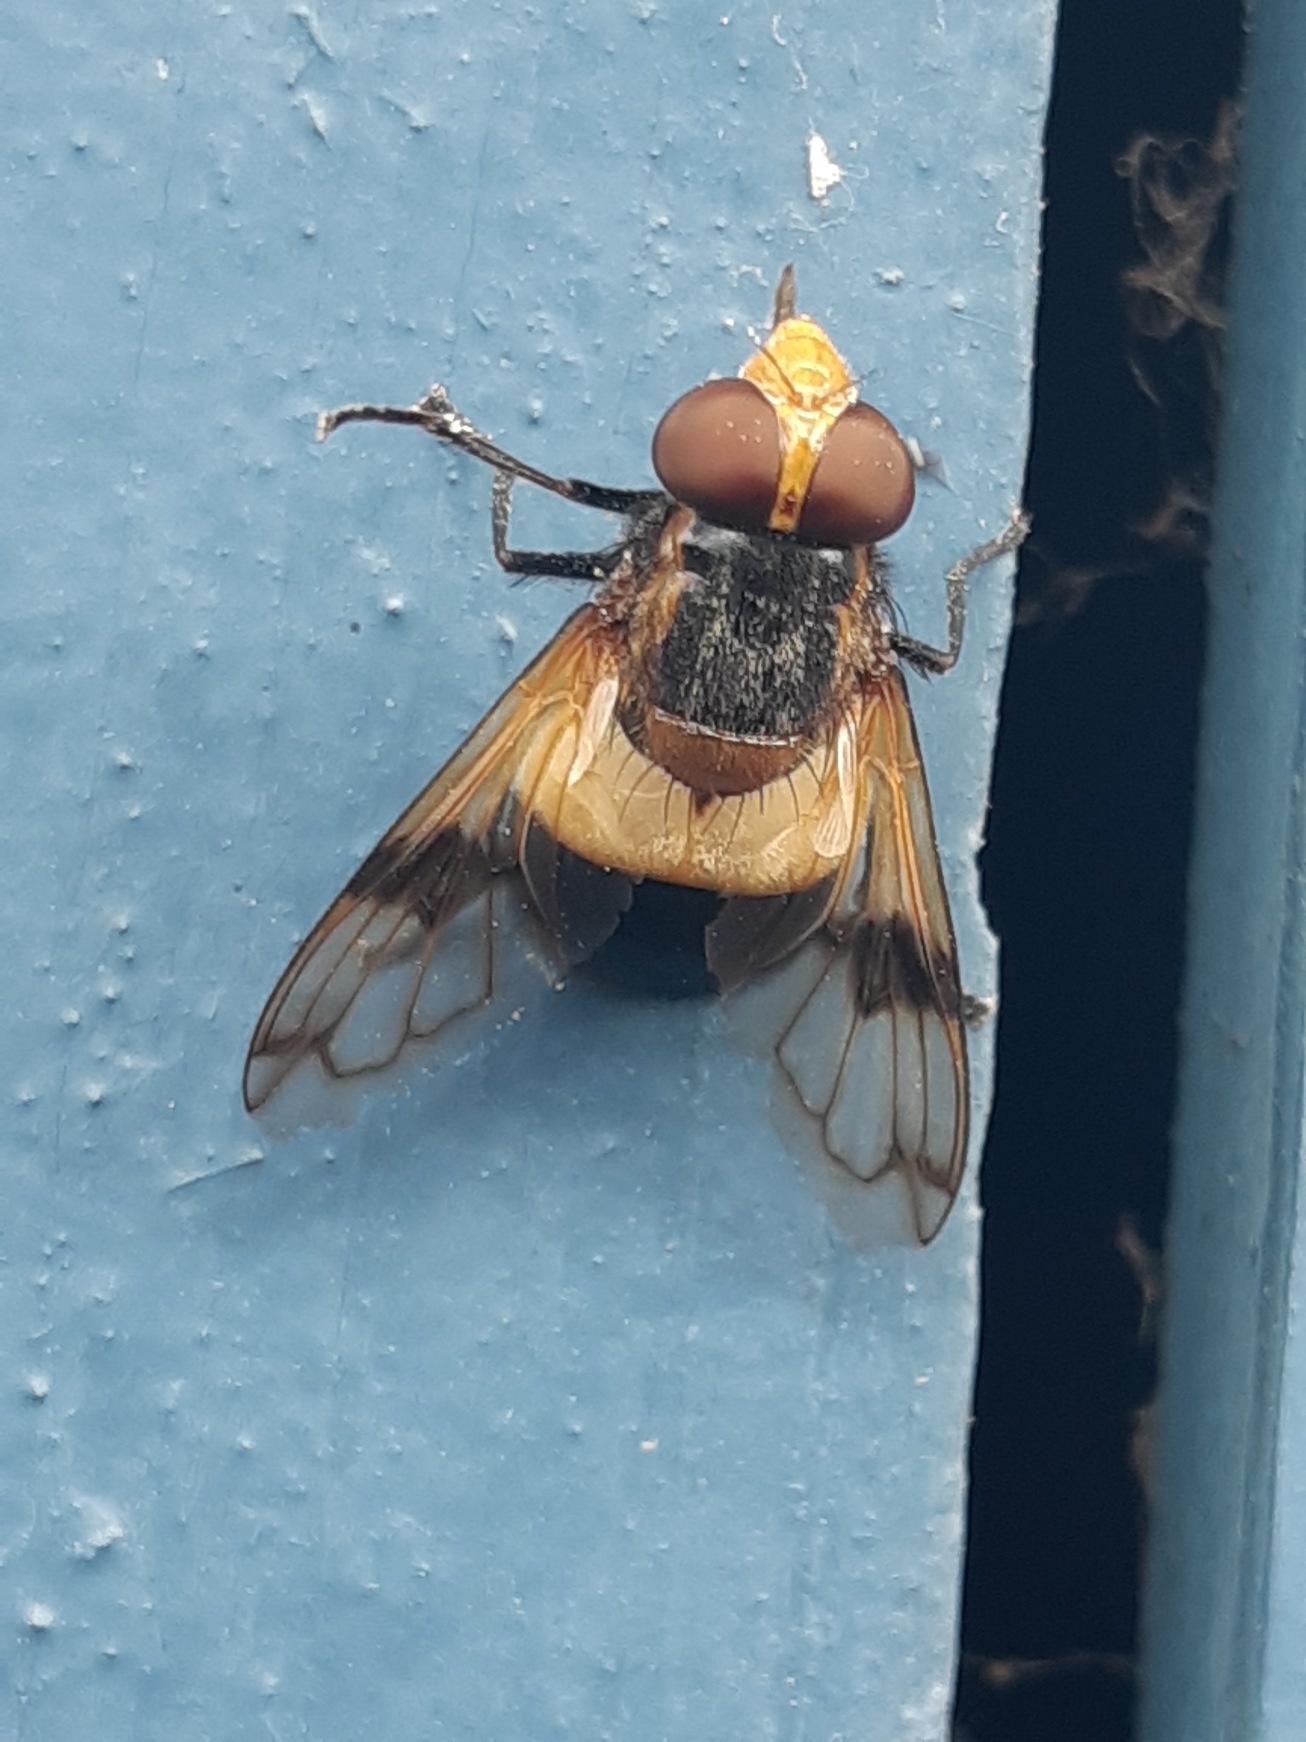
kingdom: Animalia
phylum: Arthropoda
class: Insecta
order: Diptera
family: Syrphidae
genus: Volucella
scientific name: Volucella pellucens
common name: Hvidbåndet humlesvirreflue
